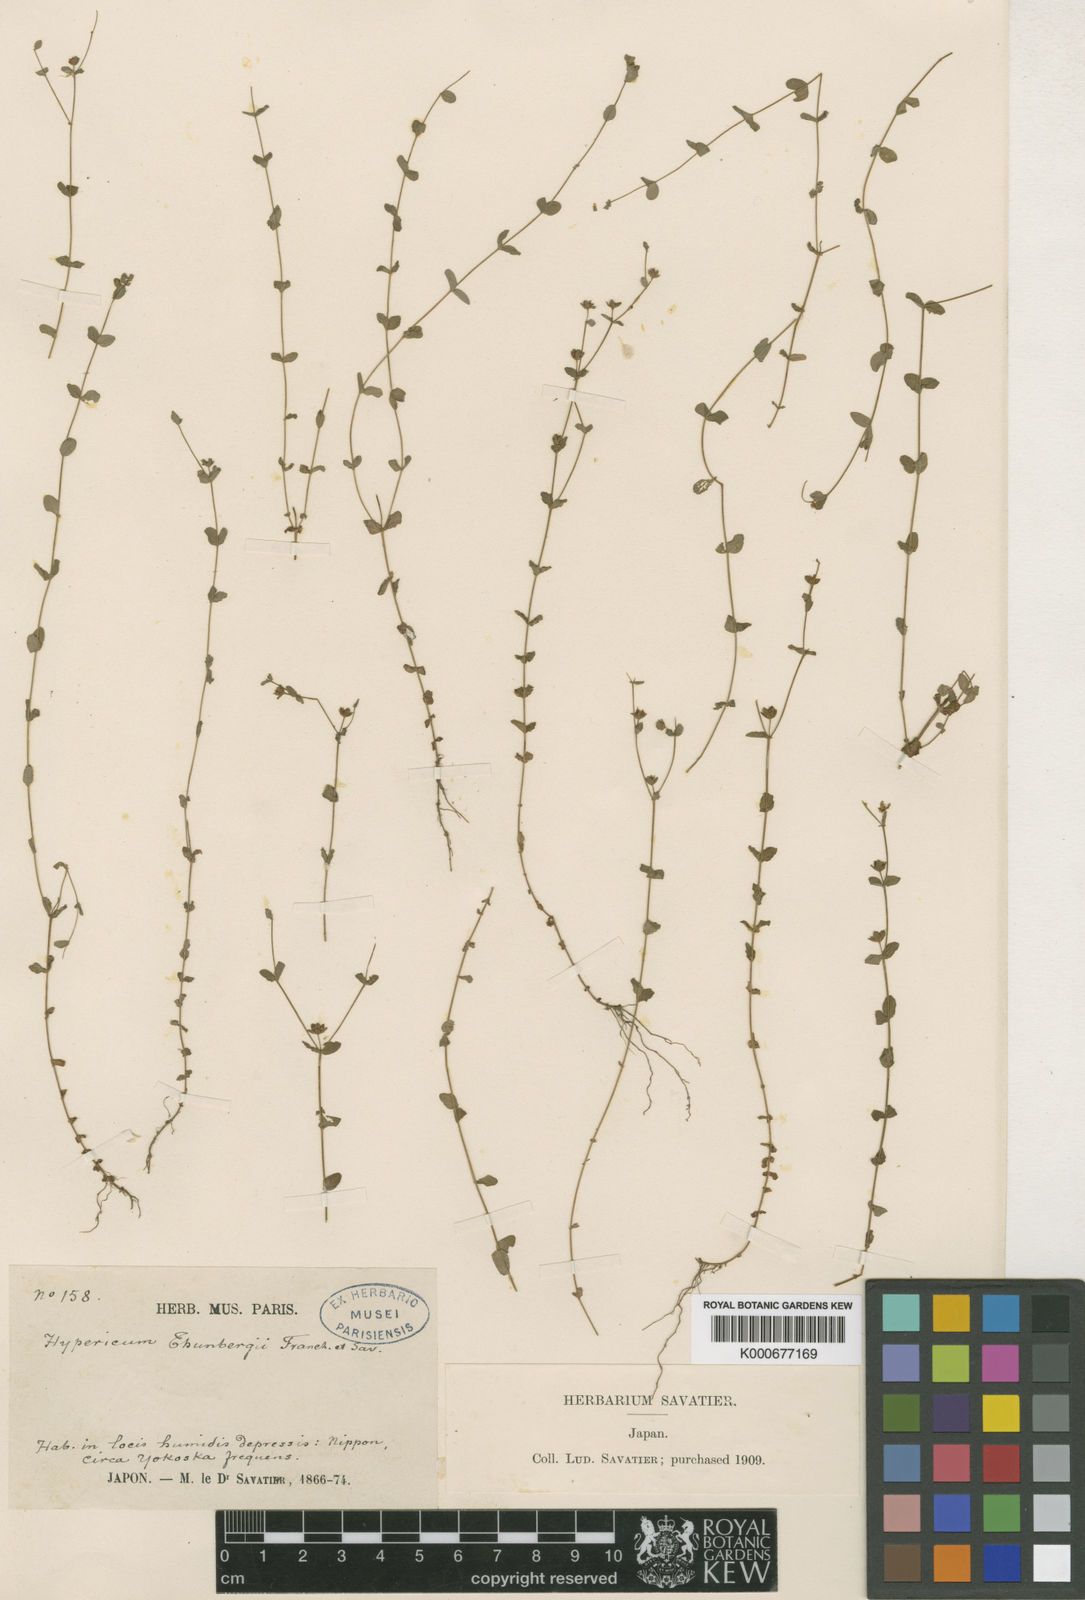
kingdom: Plantae
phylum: Tracheophyta
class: Magnoliopsida
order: Malpighiales
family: Hypericaceae
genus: Hypericum
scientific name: Hypericum japonicum
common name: Matted st. john's-wort
